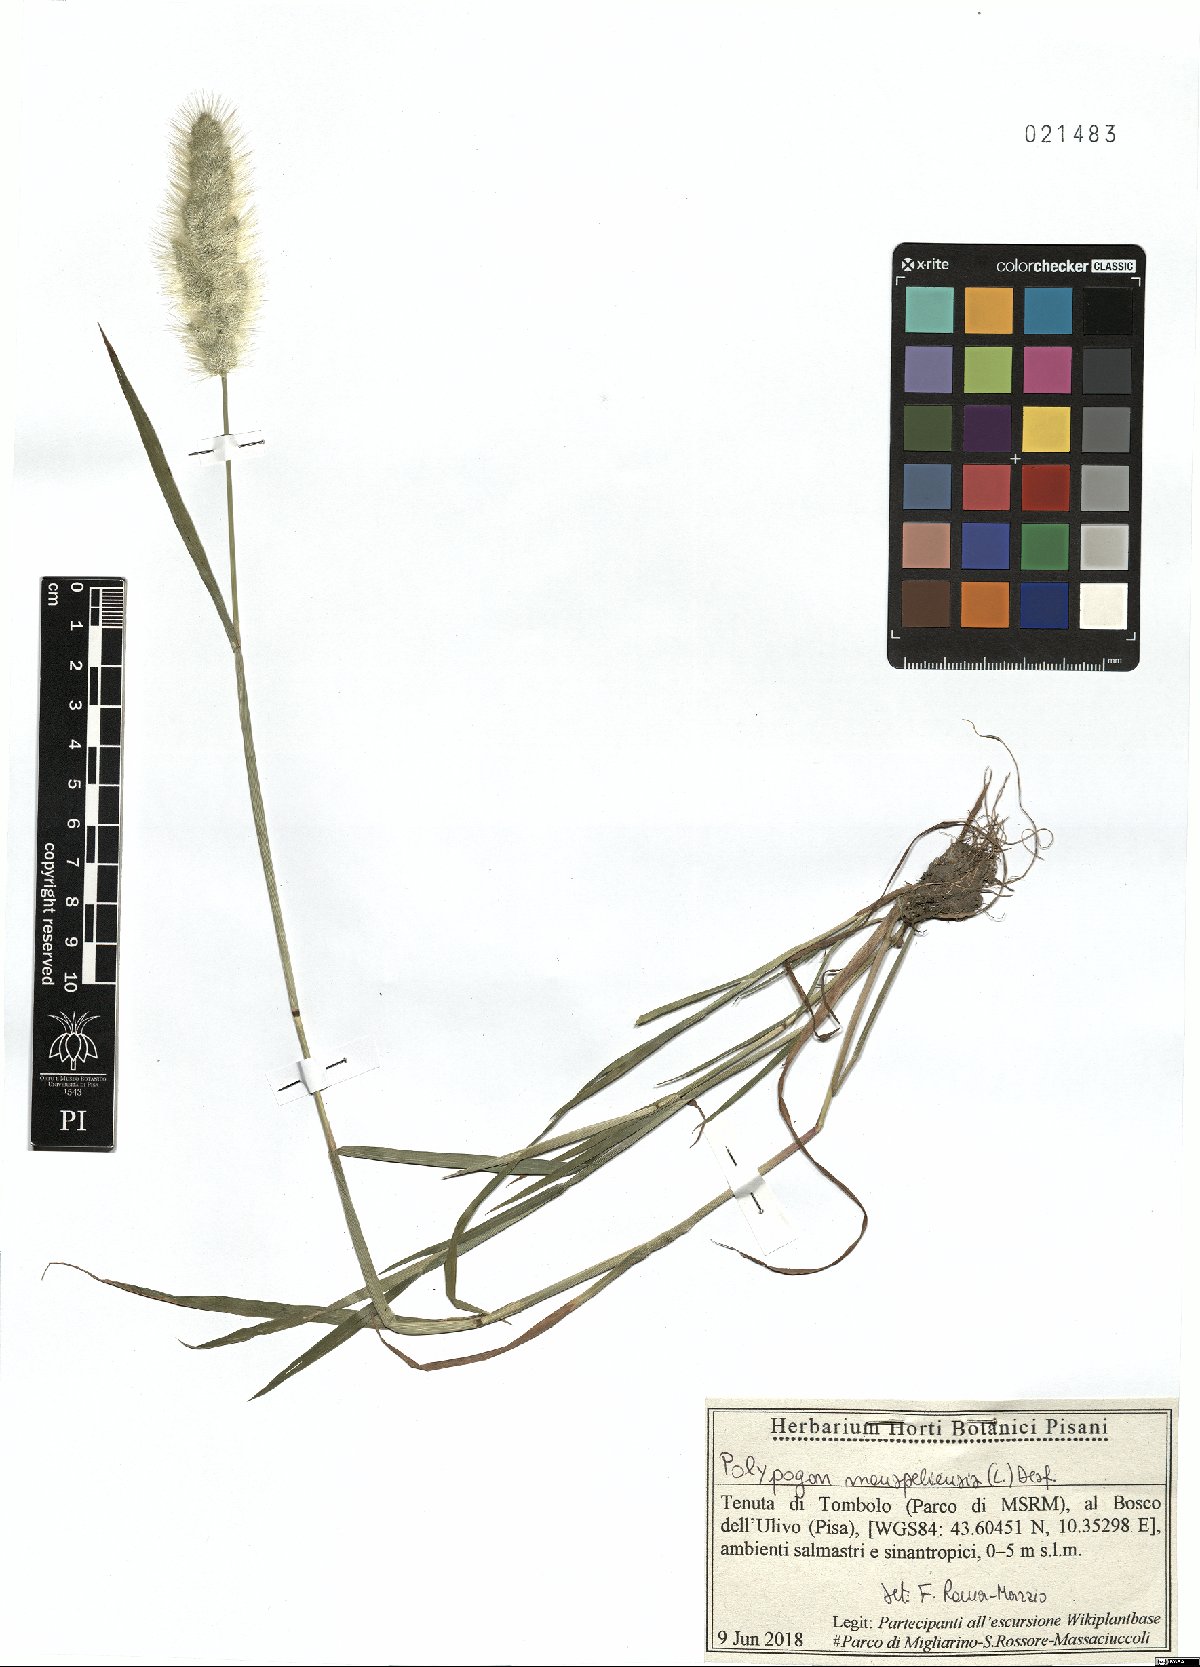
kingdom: Plantae
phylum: Tracheophyta
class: Liliopsida
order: Poales
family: Poaceae
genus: Polypogon
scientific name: Polypogon monspeliensis
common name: Annual rabbitsfoot grass
